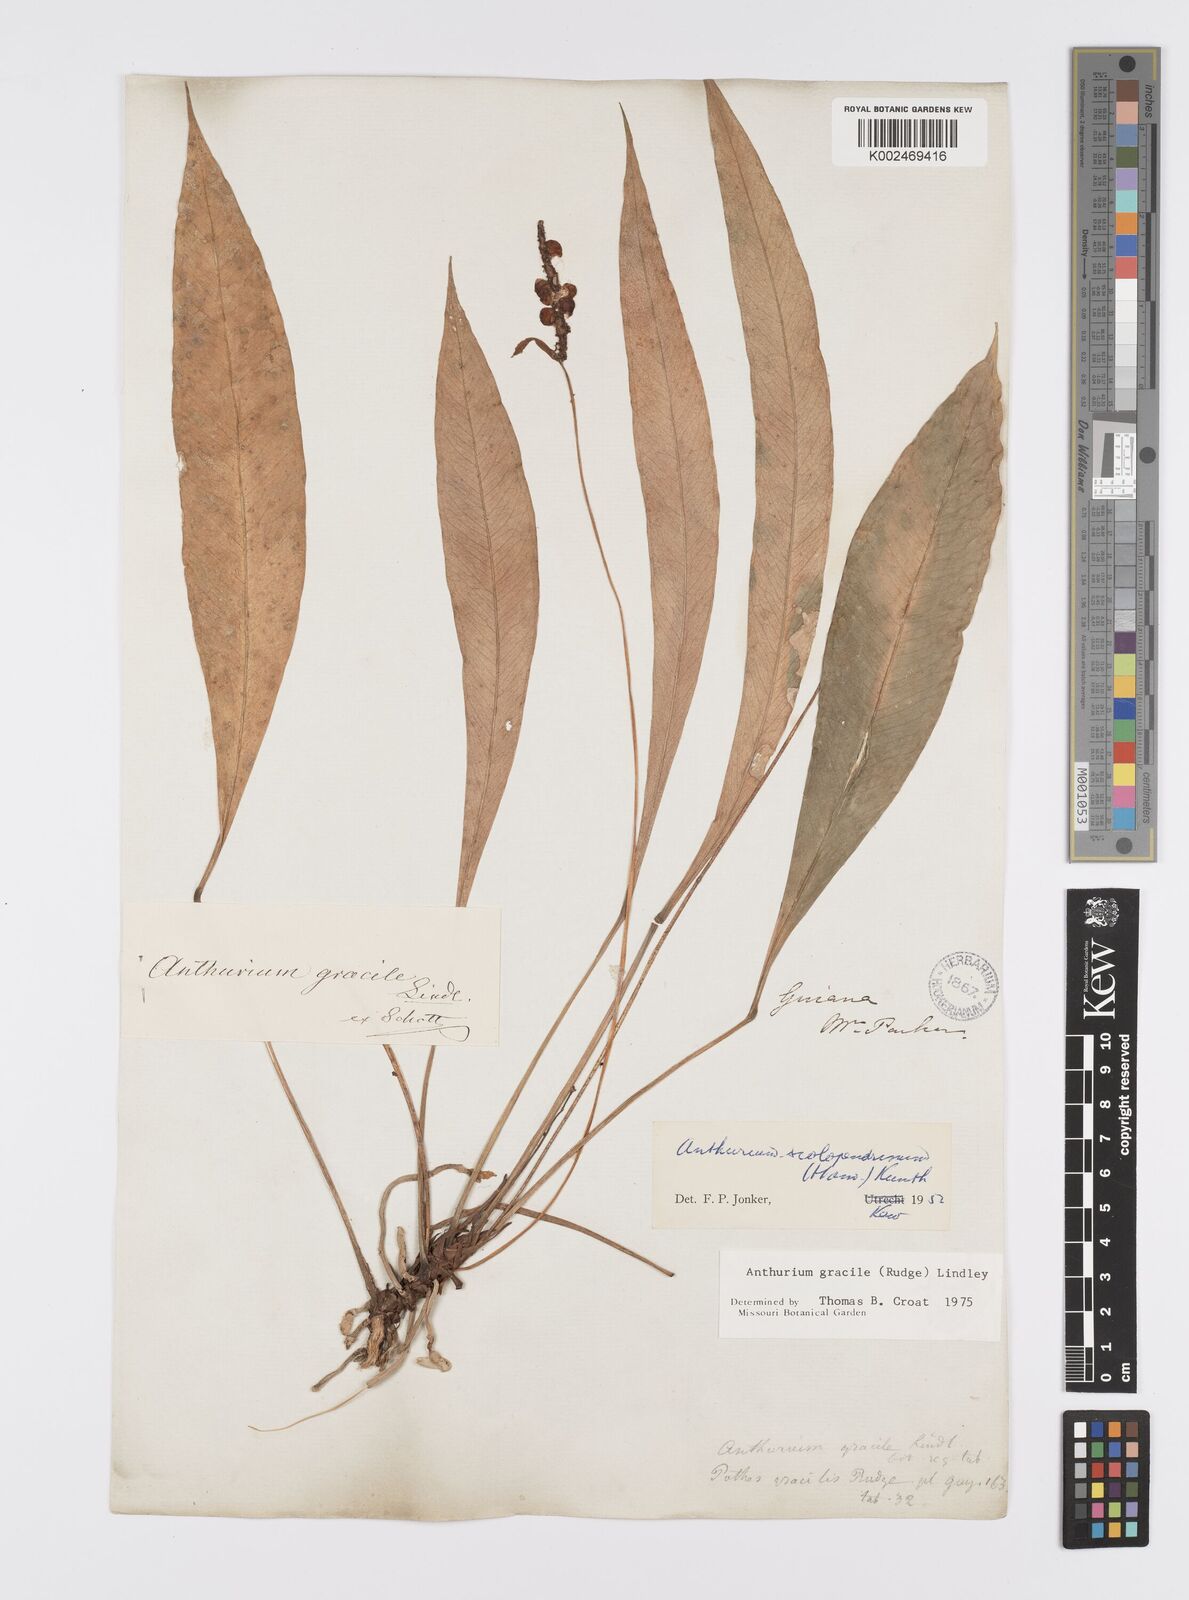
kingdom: Plantae
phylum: Tracheophyta
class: Liliopsida
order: Alismatales
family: Araceae
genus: Anthurium
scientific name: Anthurium gracile
